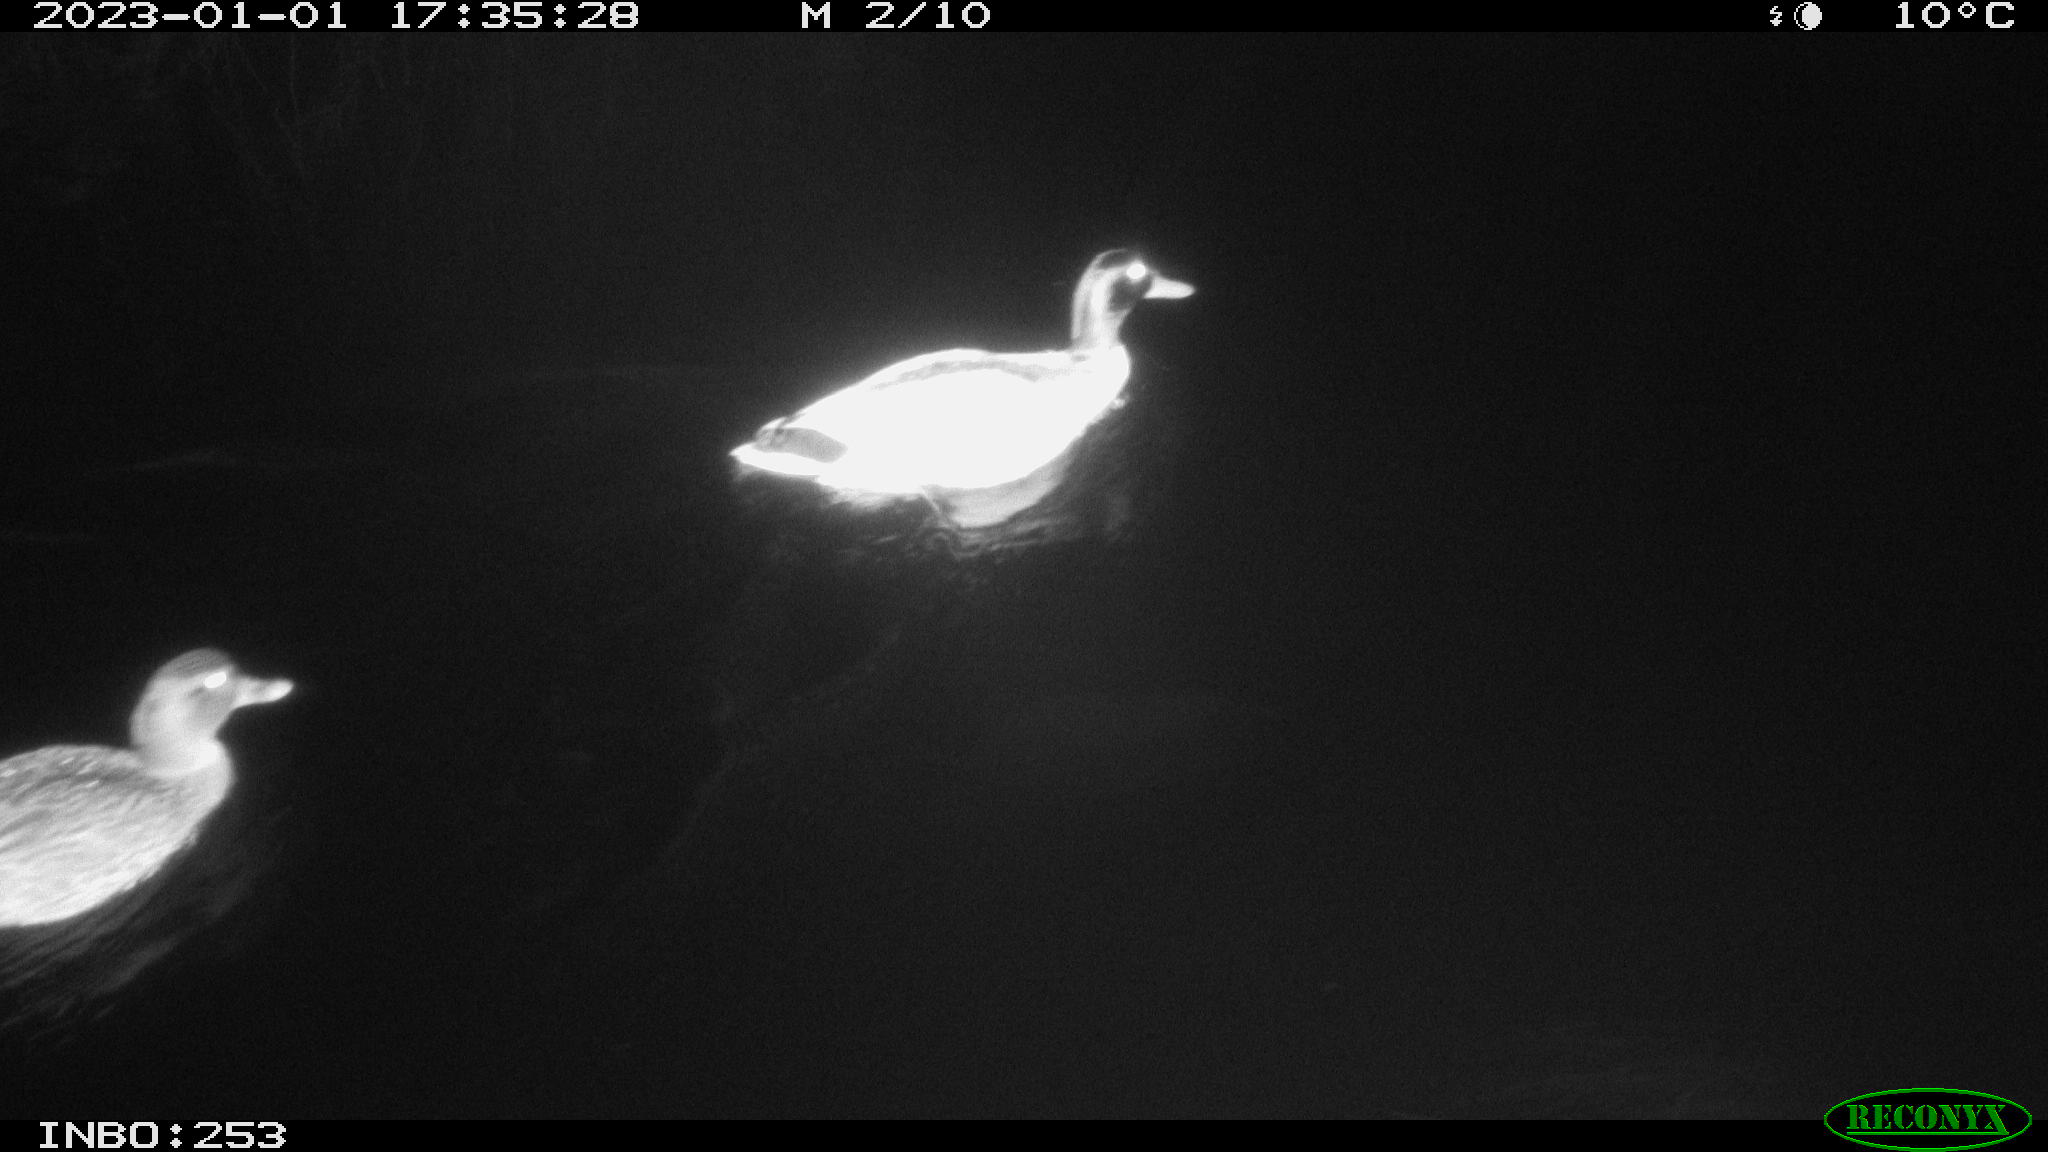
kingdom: Animalia
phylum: Chordata
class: Aves
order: Anseriformes
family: Anatidae
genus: Anas
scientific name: Anas
